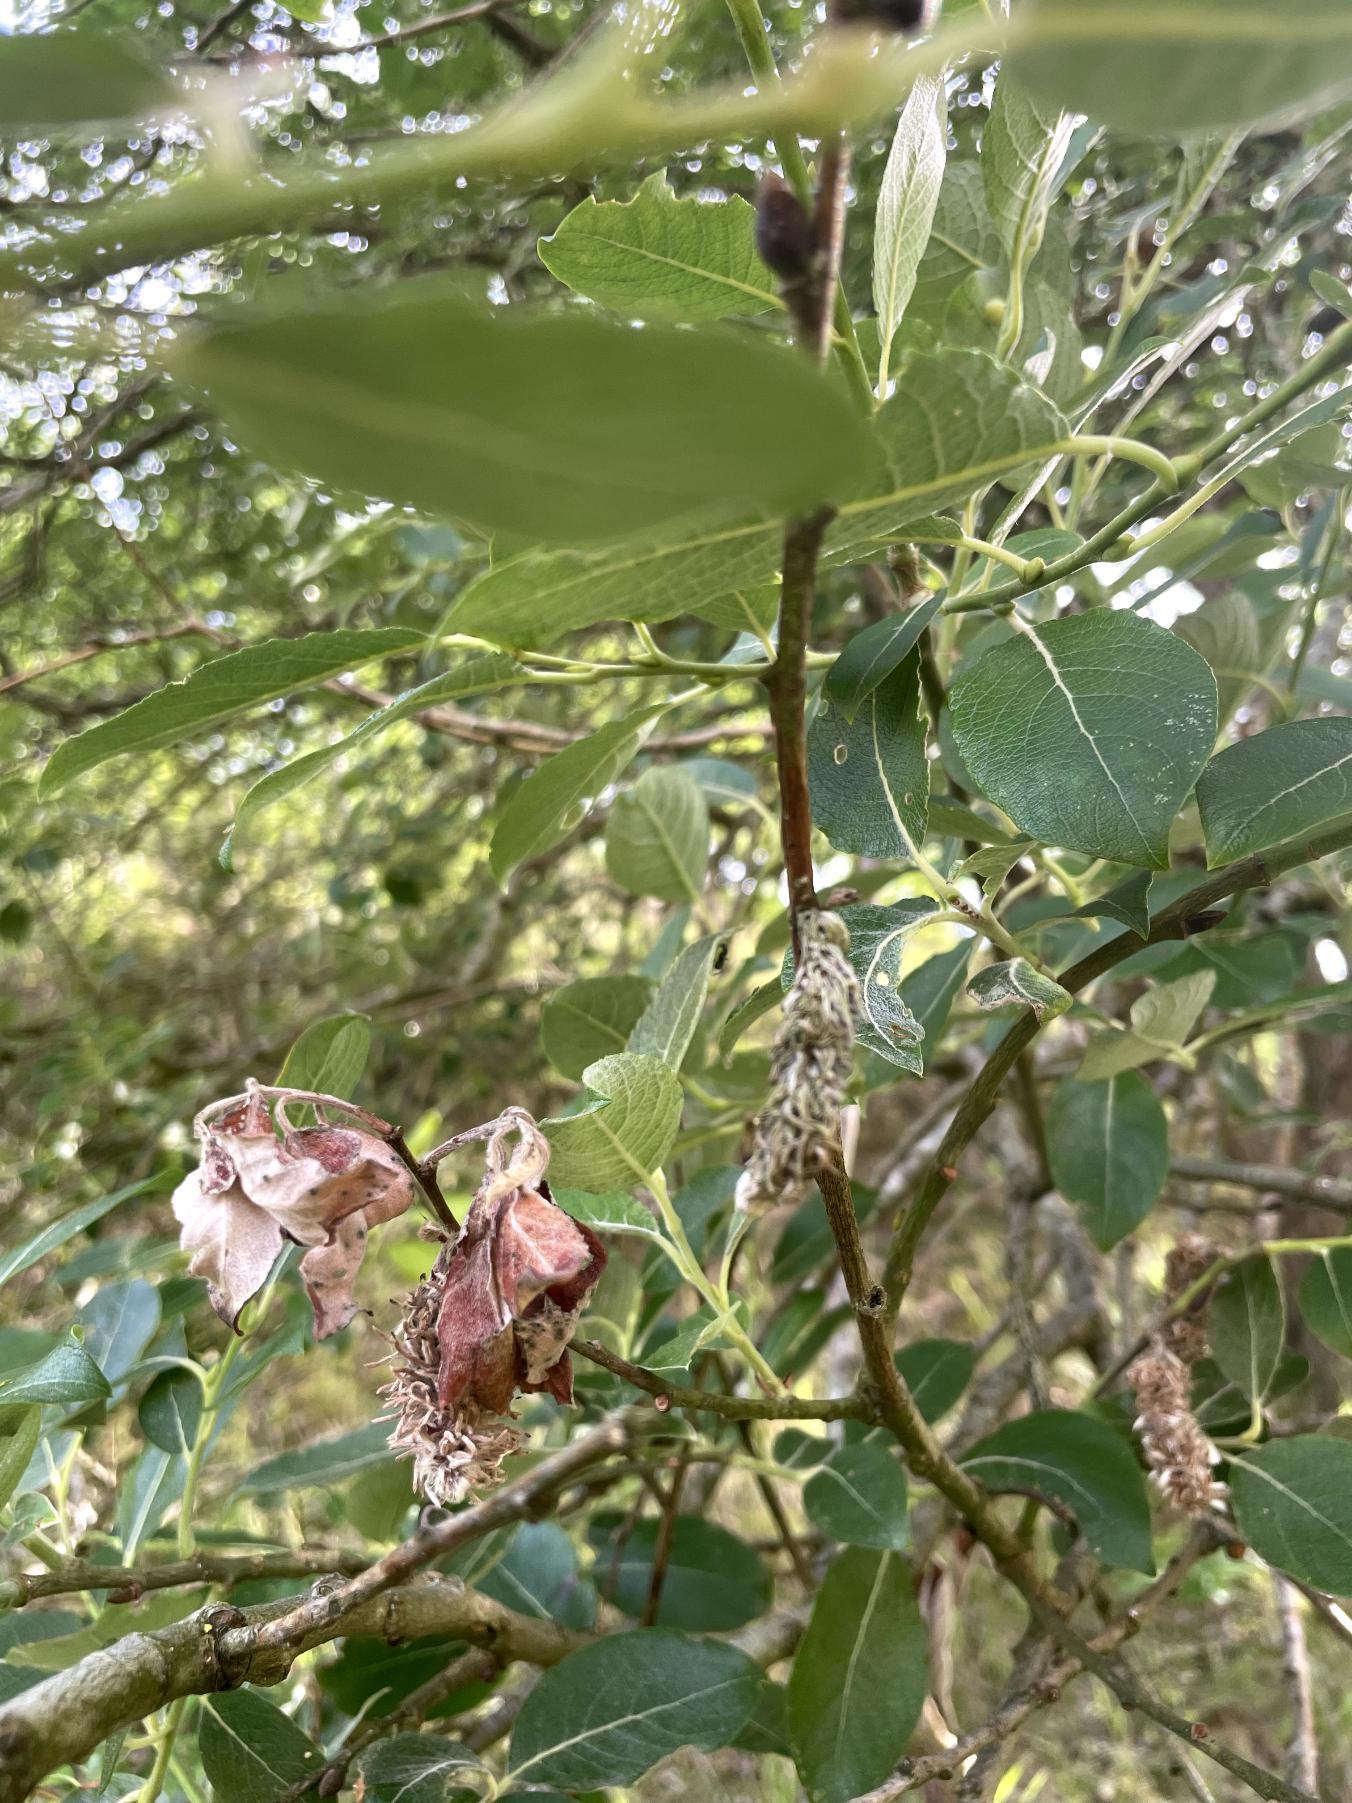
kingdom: Plantae
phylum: Tracheophyta
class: Magnoliopsida
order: Malpighiales
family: Salicaceae
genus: Salix
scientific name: Salix caprea
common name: Selje-pil
